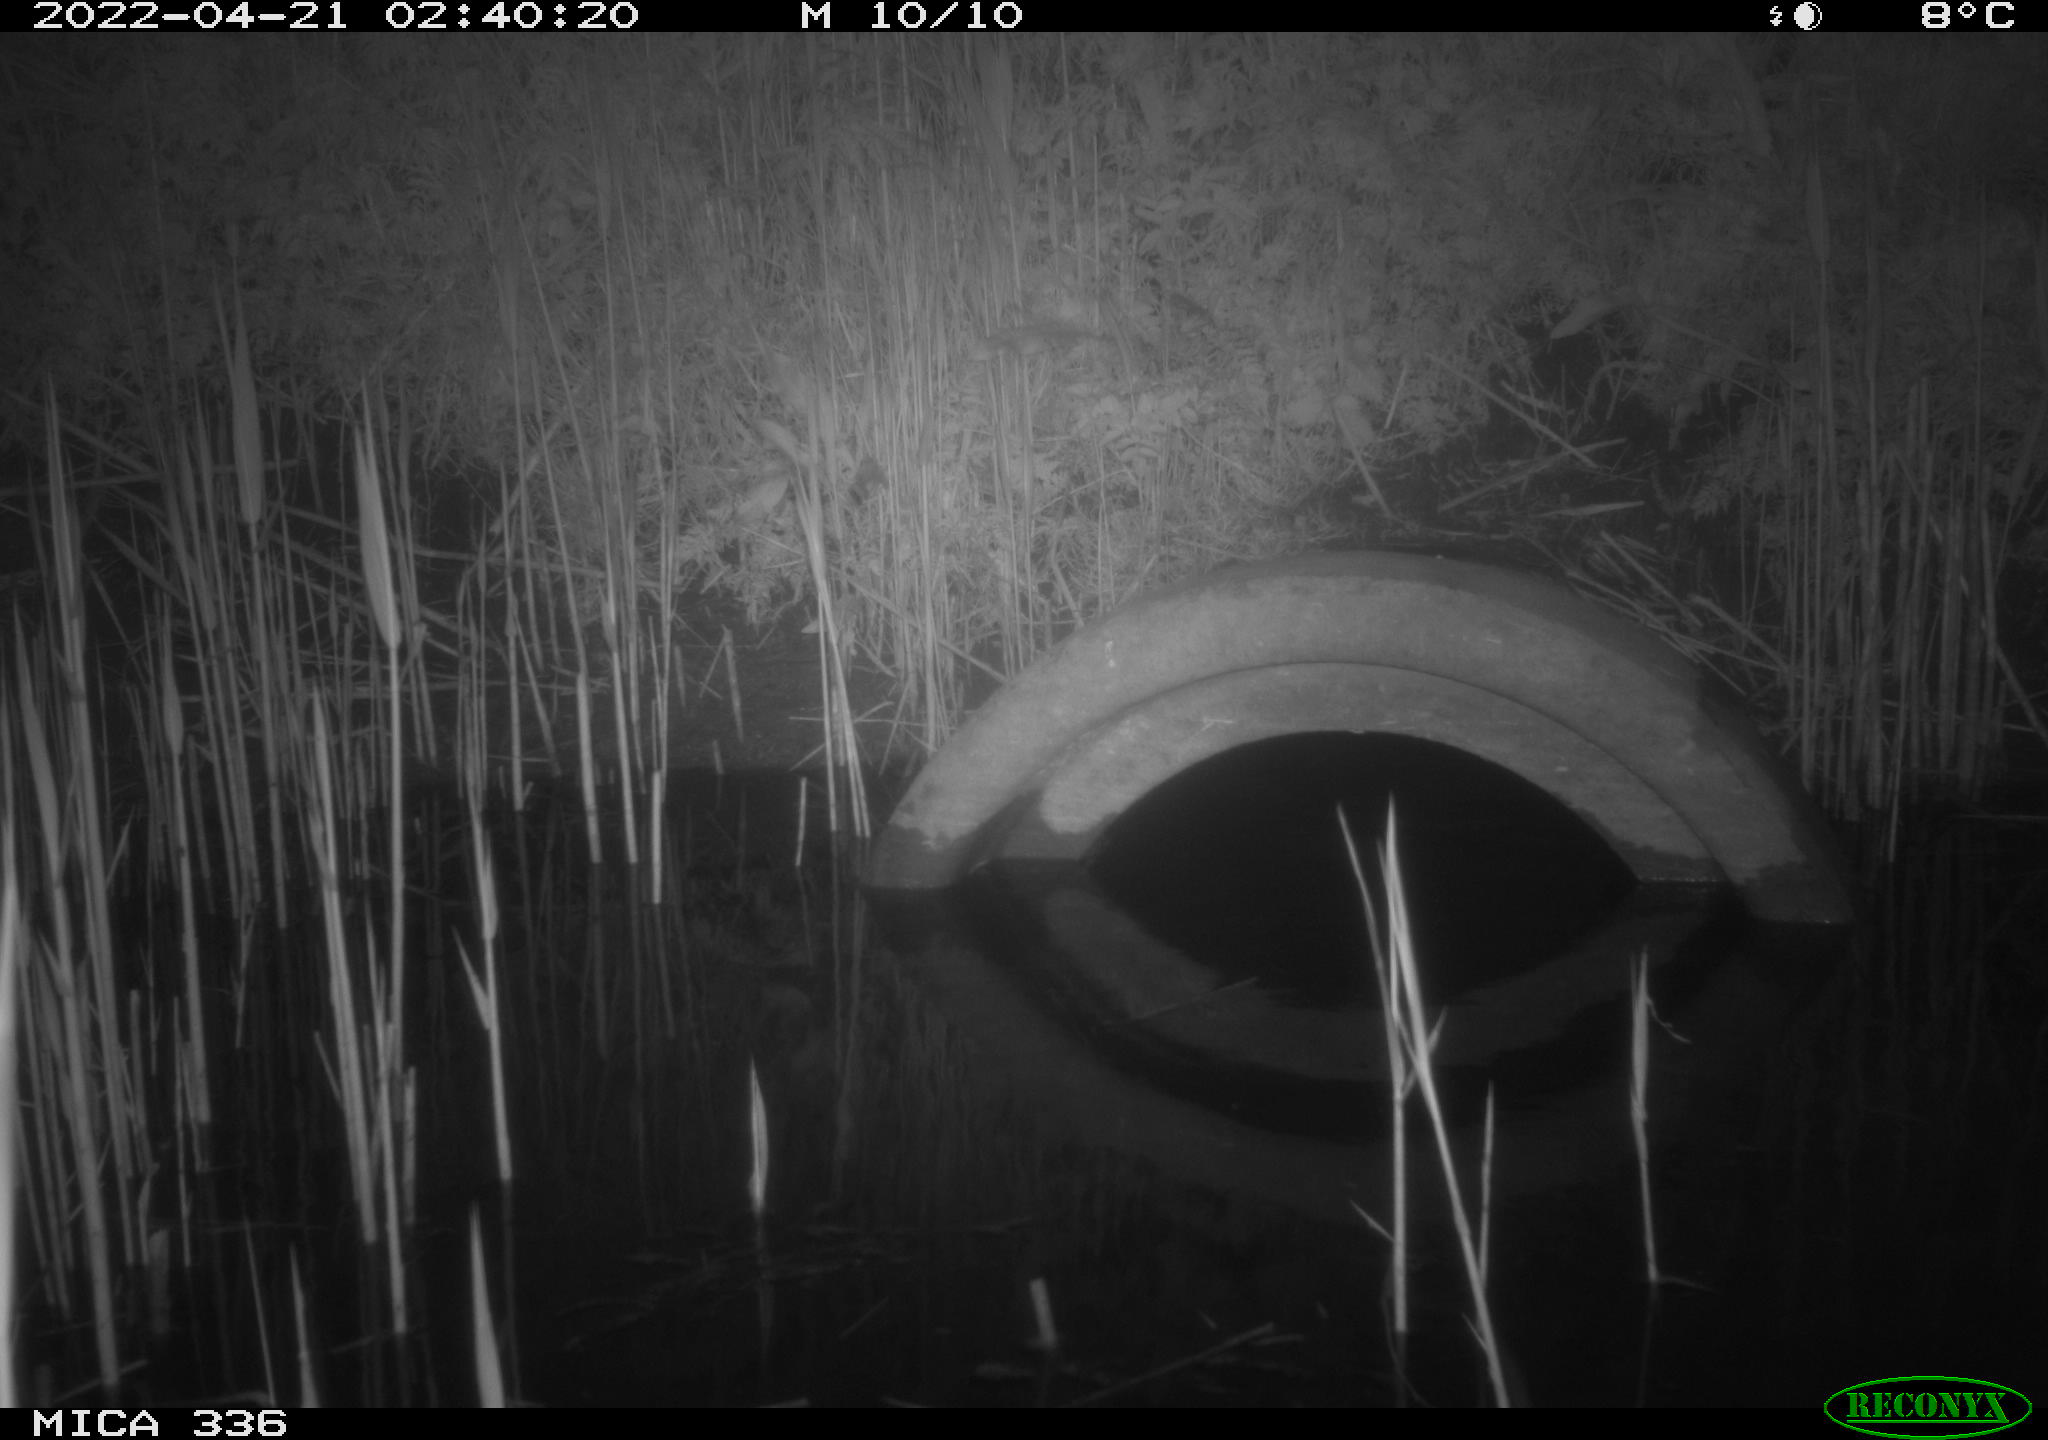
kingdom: Animalia
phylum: Chordata
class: Mammalia
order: Rodentia
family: Muridae
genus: Rattus
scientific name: Rattus norvegicus
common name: Brown rat
